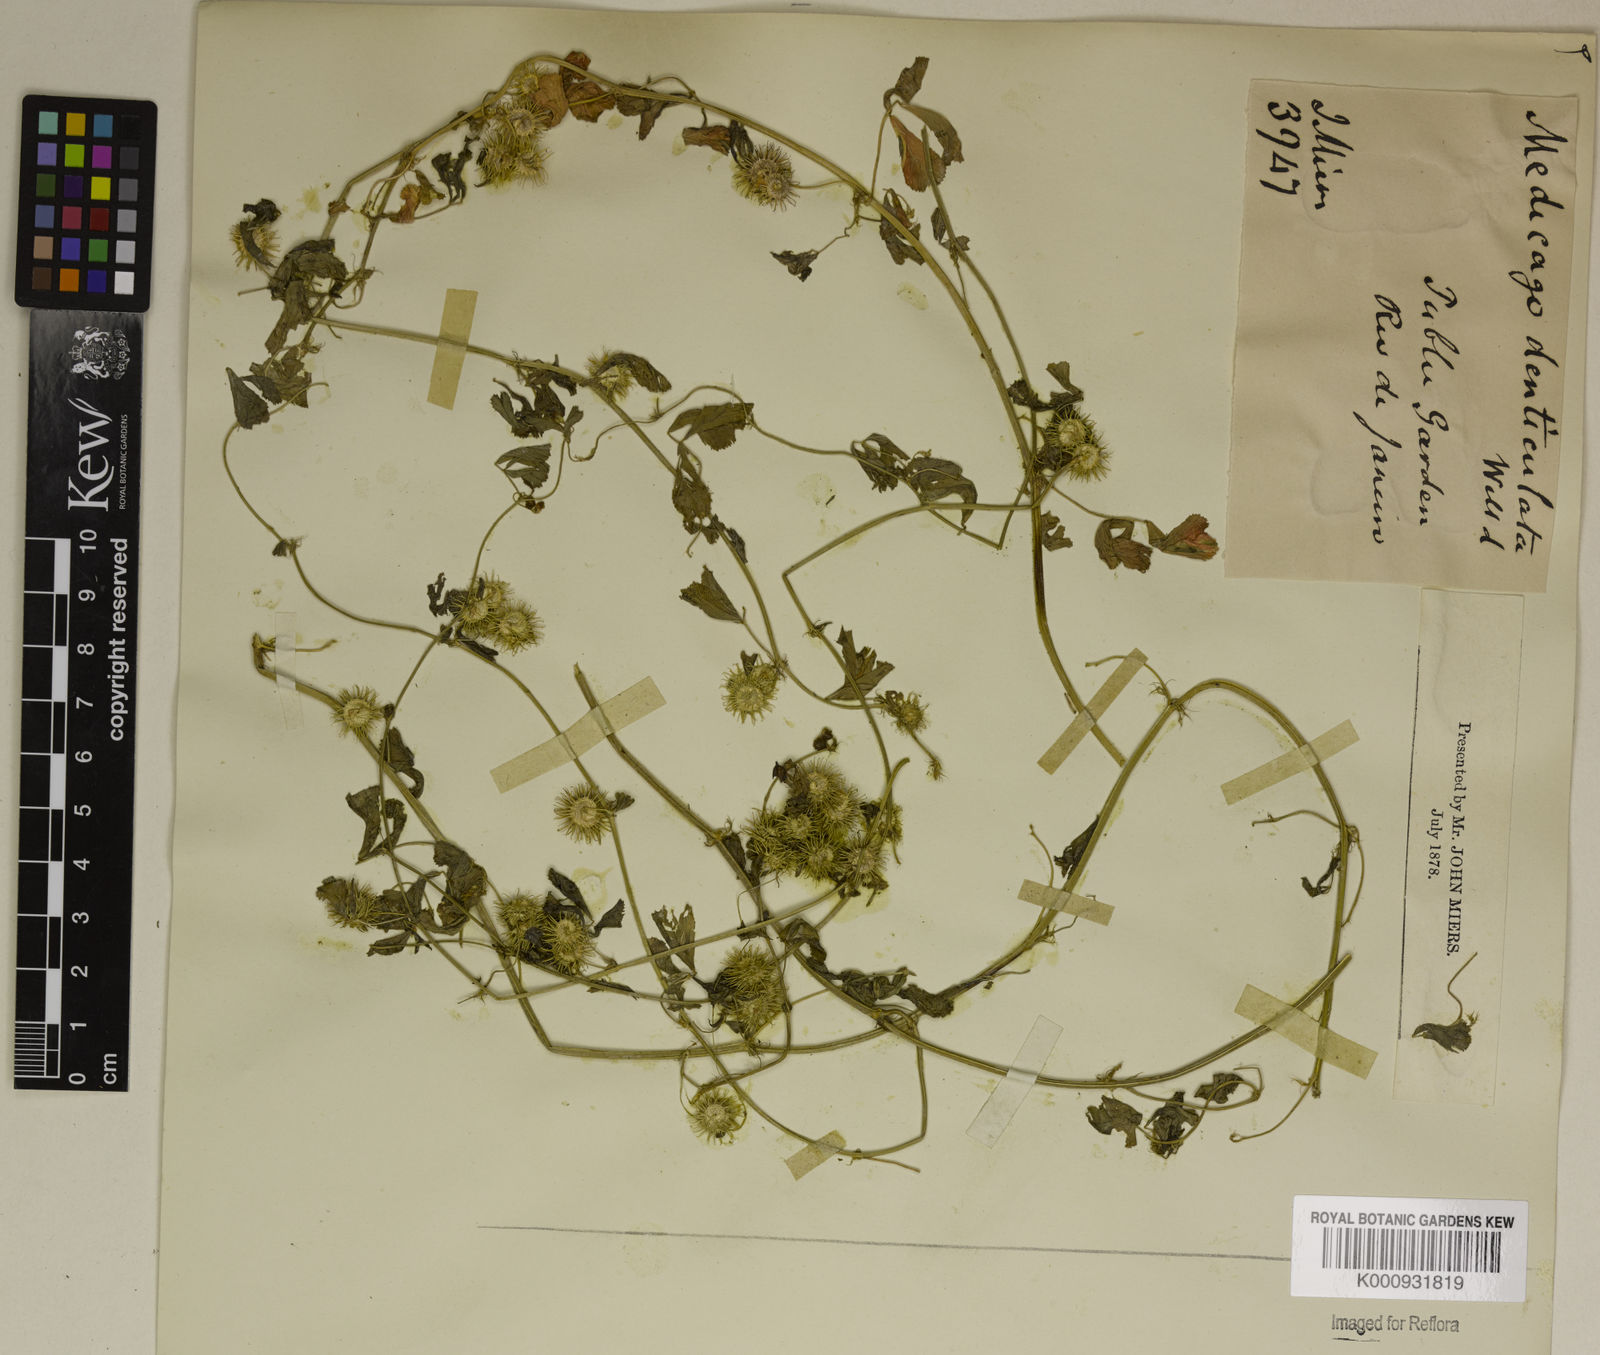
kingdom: Plantae
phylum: Tracheophyta
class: Magnoliopsida
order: Fabales
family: Fabaceae
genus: Medicago
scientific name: Medicago
